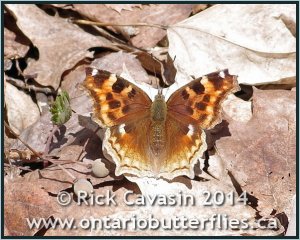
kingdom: Animalia
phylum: Arthropoda
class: Insecta
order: Lepidoptera
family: Nymphalidae
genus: Polygonia
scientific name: Polygonia vaualbum
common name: Compton Tortoiseshell
